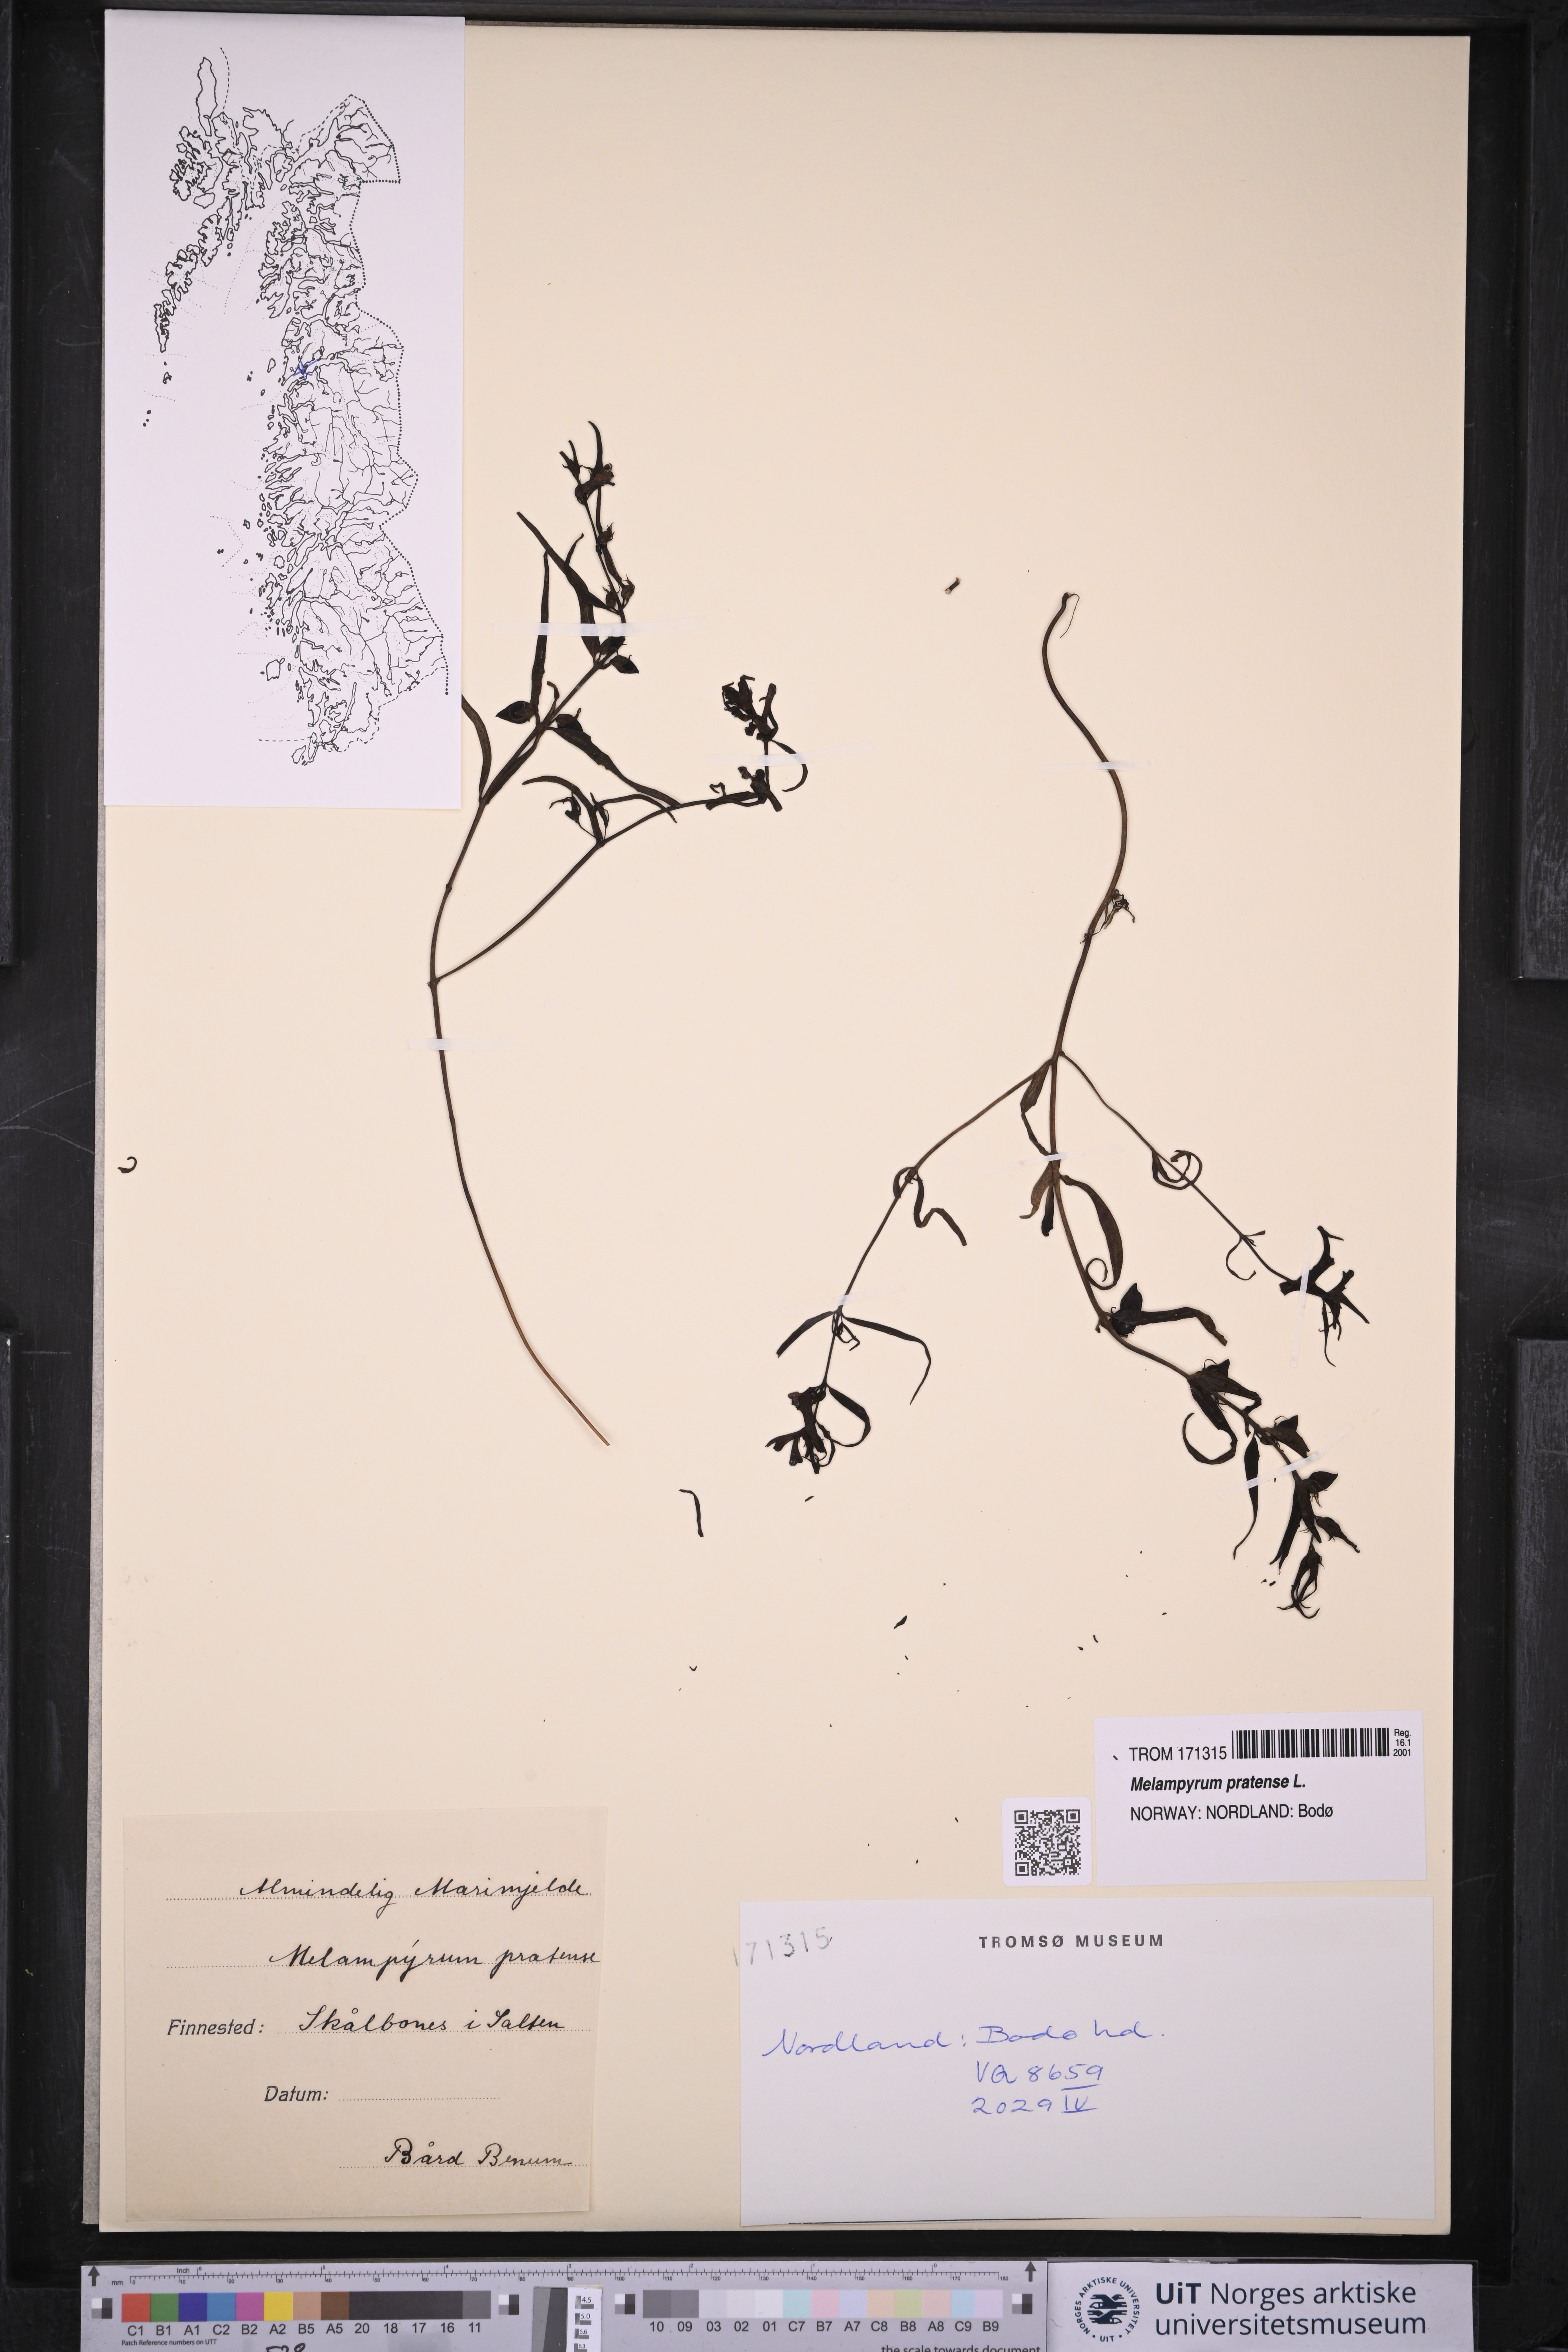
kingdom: Plantae
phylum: Tracheophyta
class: Magnoliopsida
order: Lamiales
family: Orobanchaceae
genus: Melampyrum
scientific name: Melampyrum pratense
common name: Common cow-wheat
